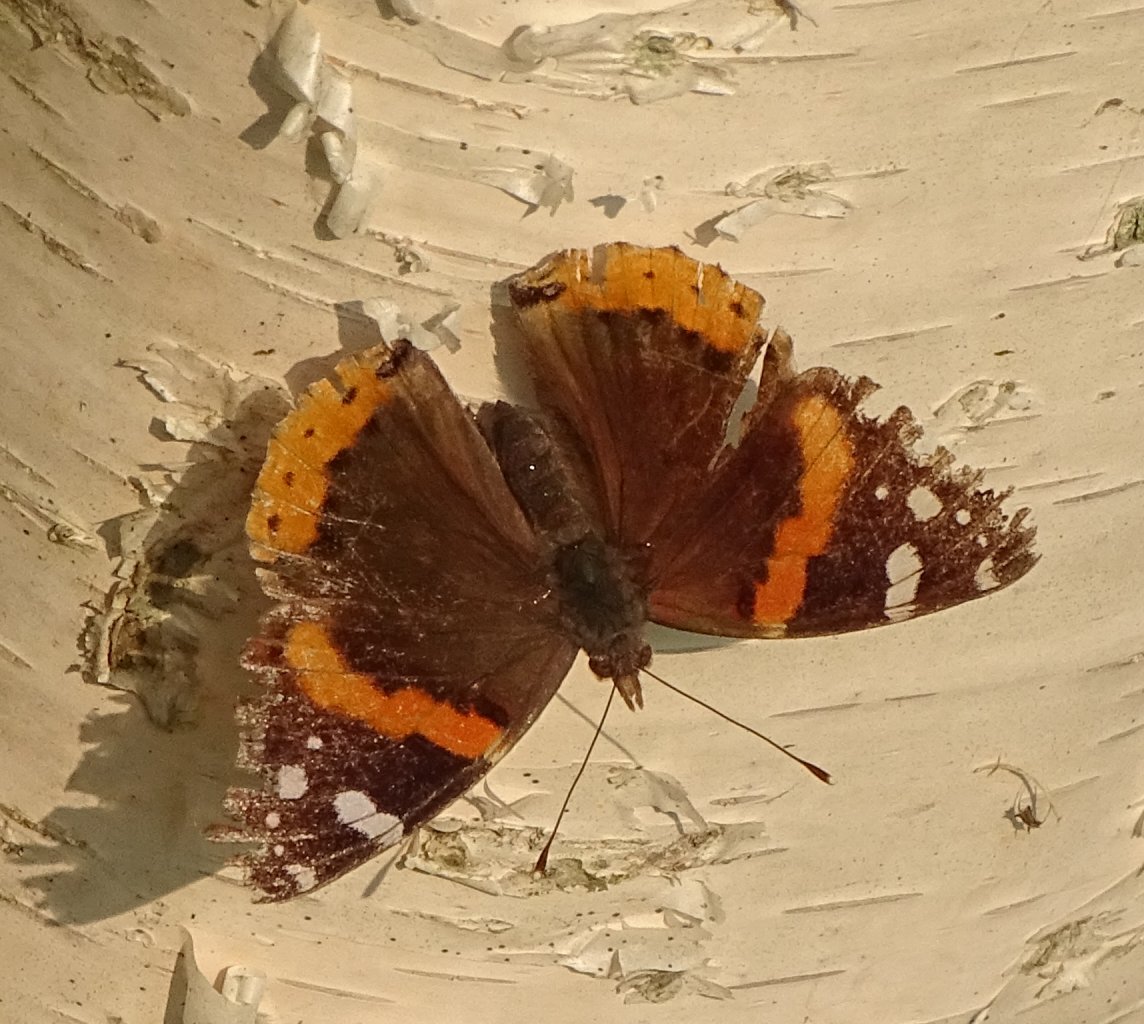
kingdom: Animalia
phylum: Arthropoda
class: Insecta
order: Lepidoptera
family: Nymphalidae
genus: Vanessa
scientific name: Vanessa atalanta
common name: Red Admiral
